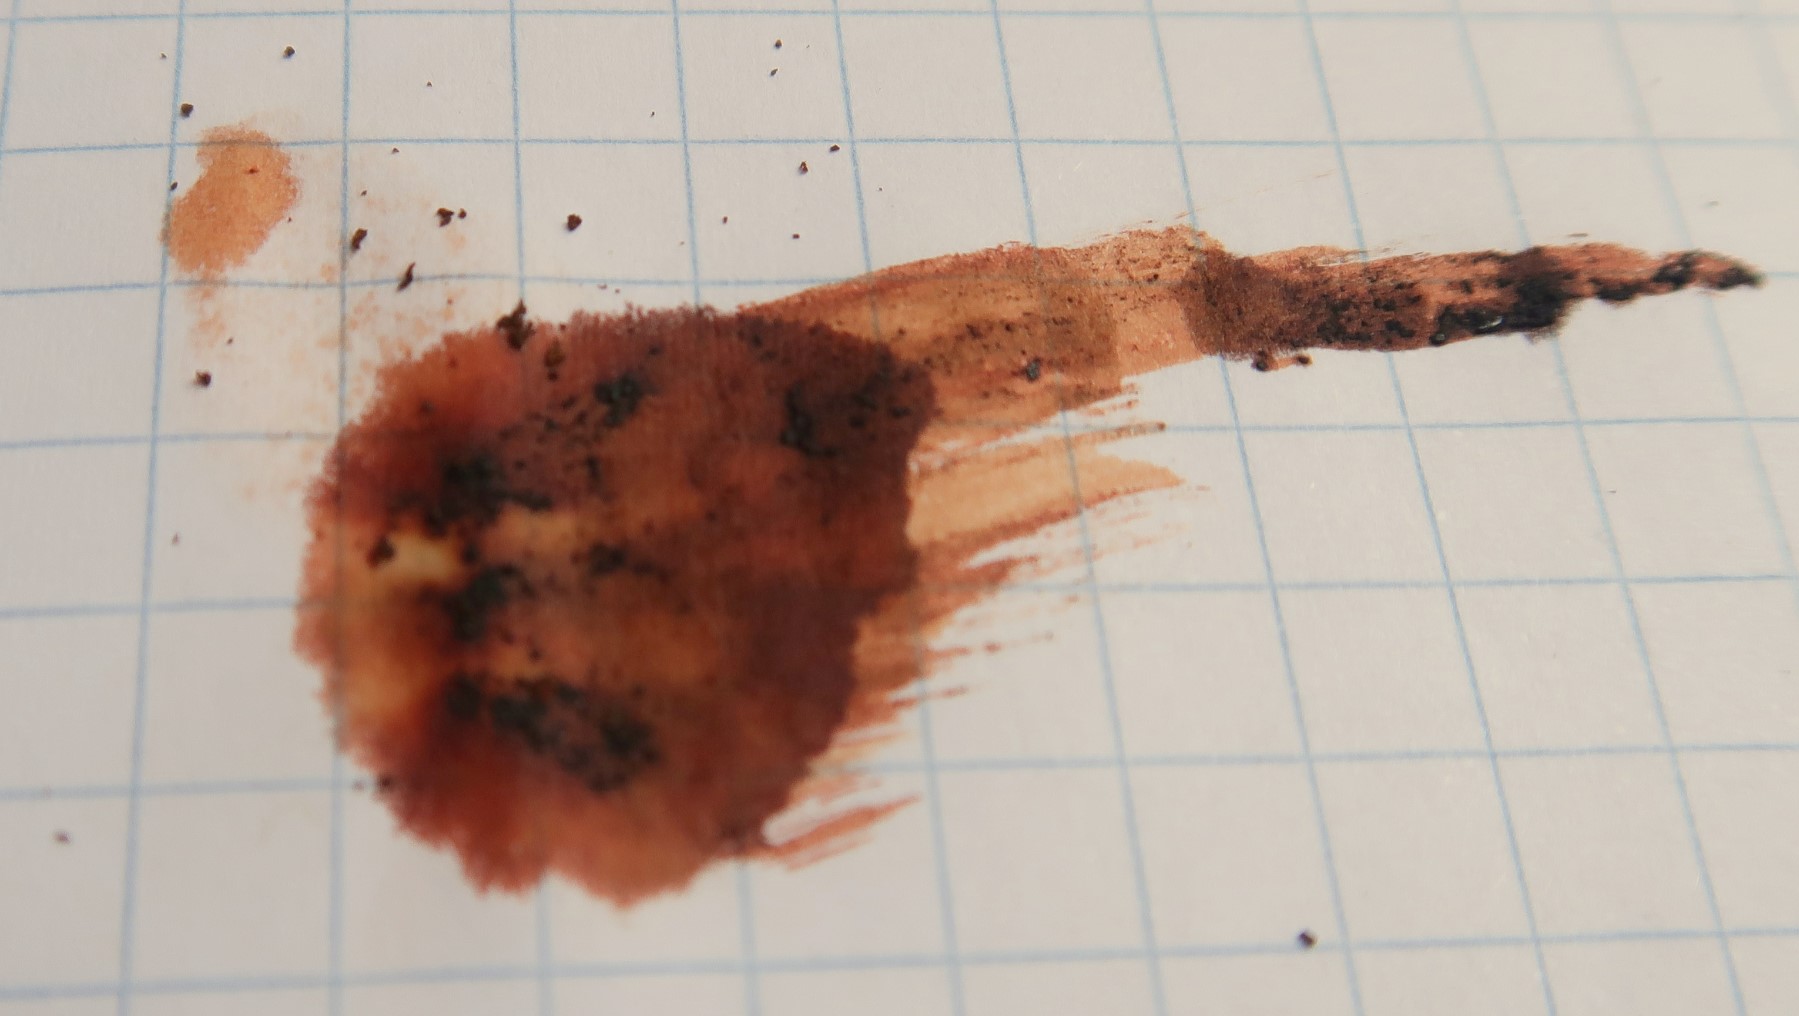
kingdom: Fungi
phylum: Ascomycota
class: Sordariomycetes
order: Xylariales
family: Hypoxylaceae
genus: Hypoxylon
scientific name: Hypoxylon petriniae
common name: nedsænket kulbær
